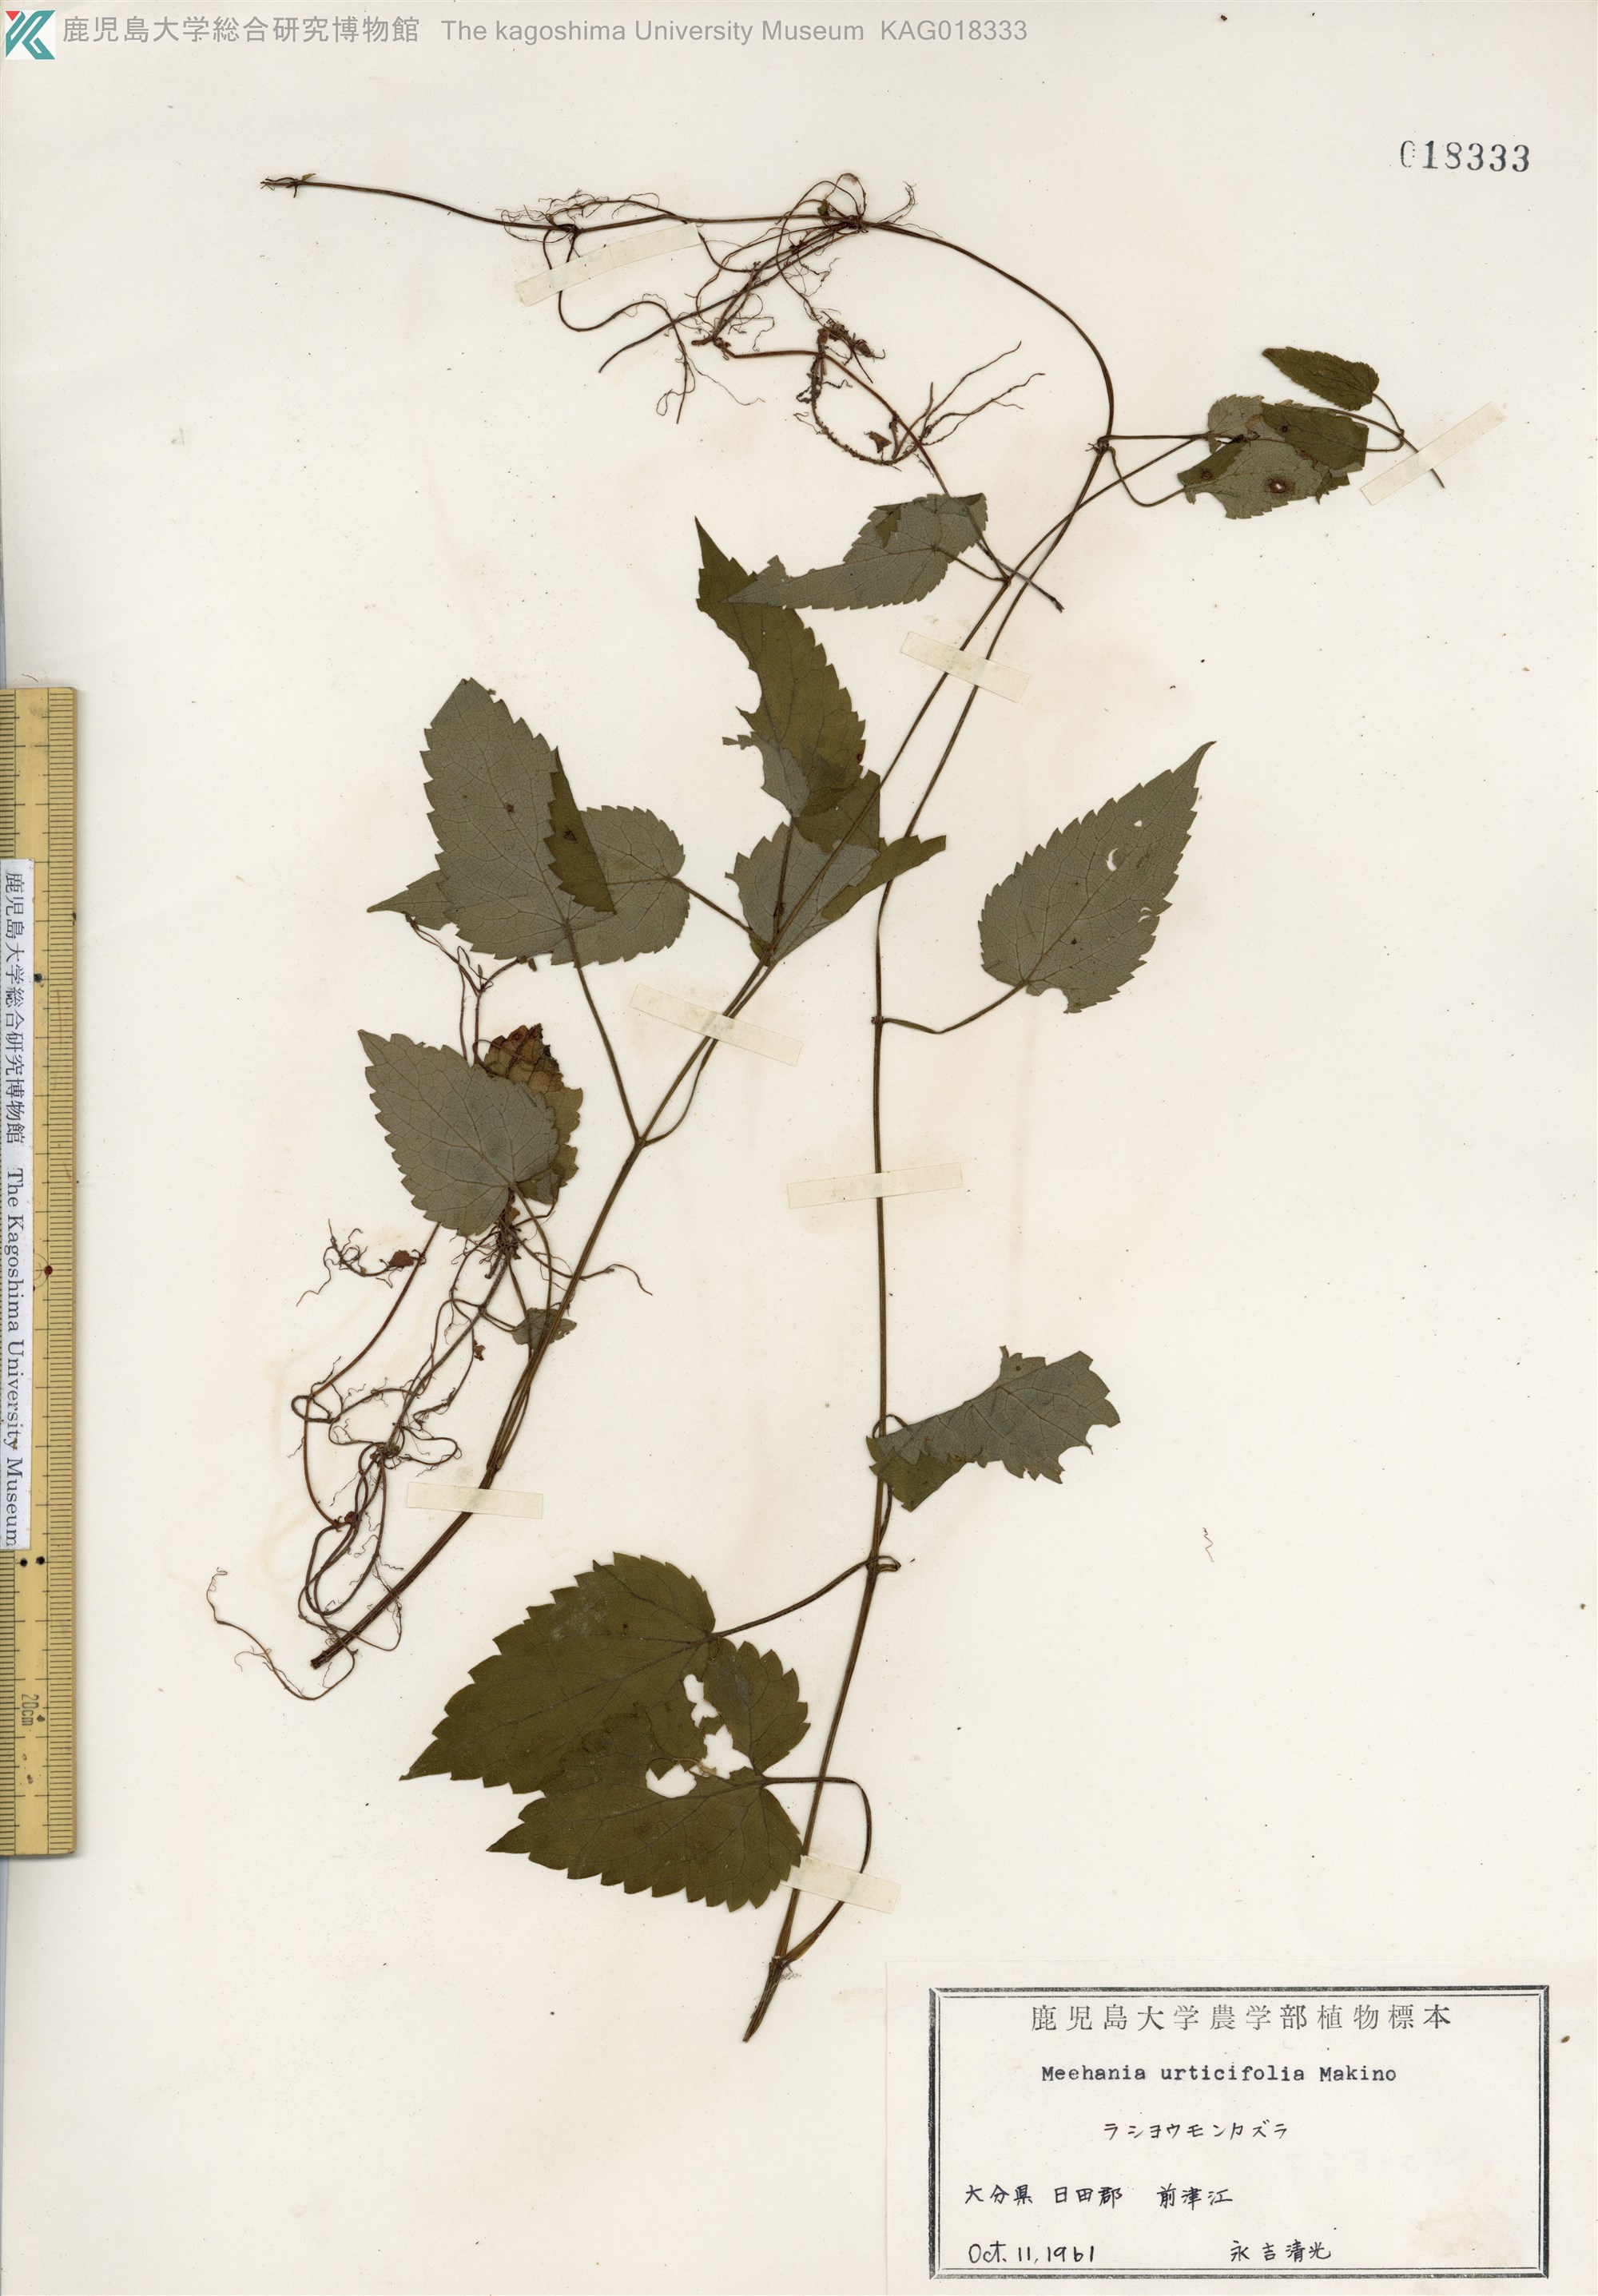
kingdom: Plantae
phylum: Tracheophyta
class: Magnoliopsida
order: Lamiales
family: Lamiaceae
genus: Meehania
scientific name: Meehania urticifolia
